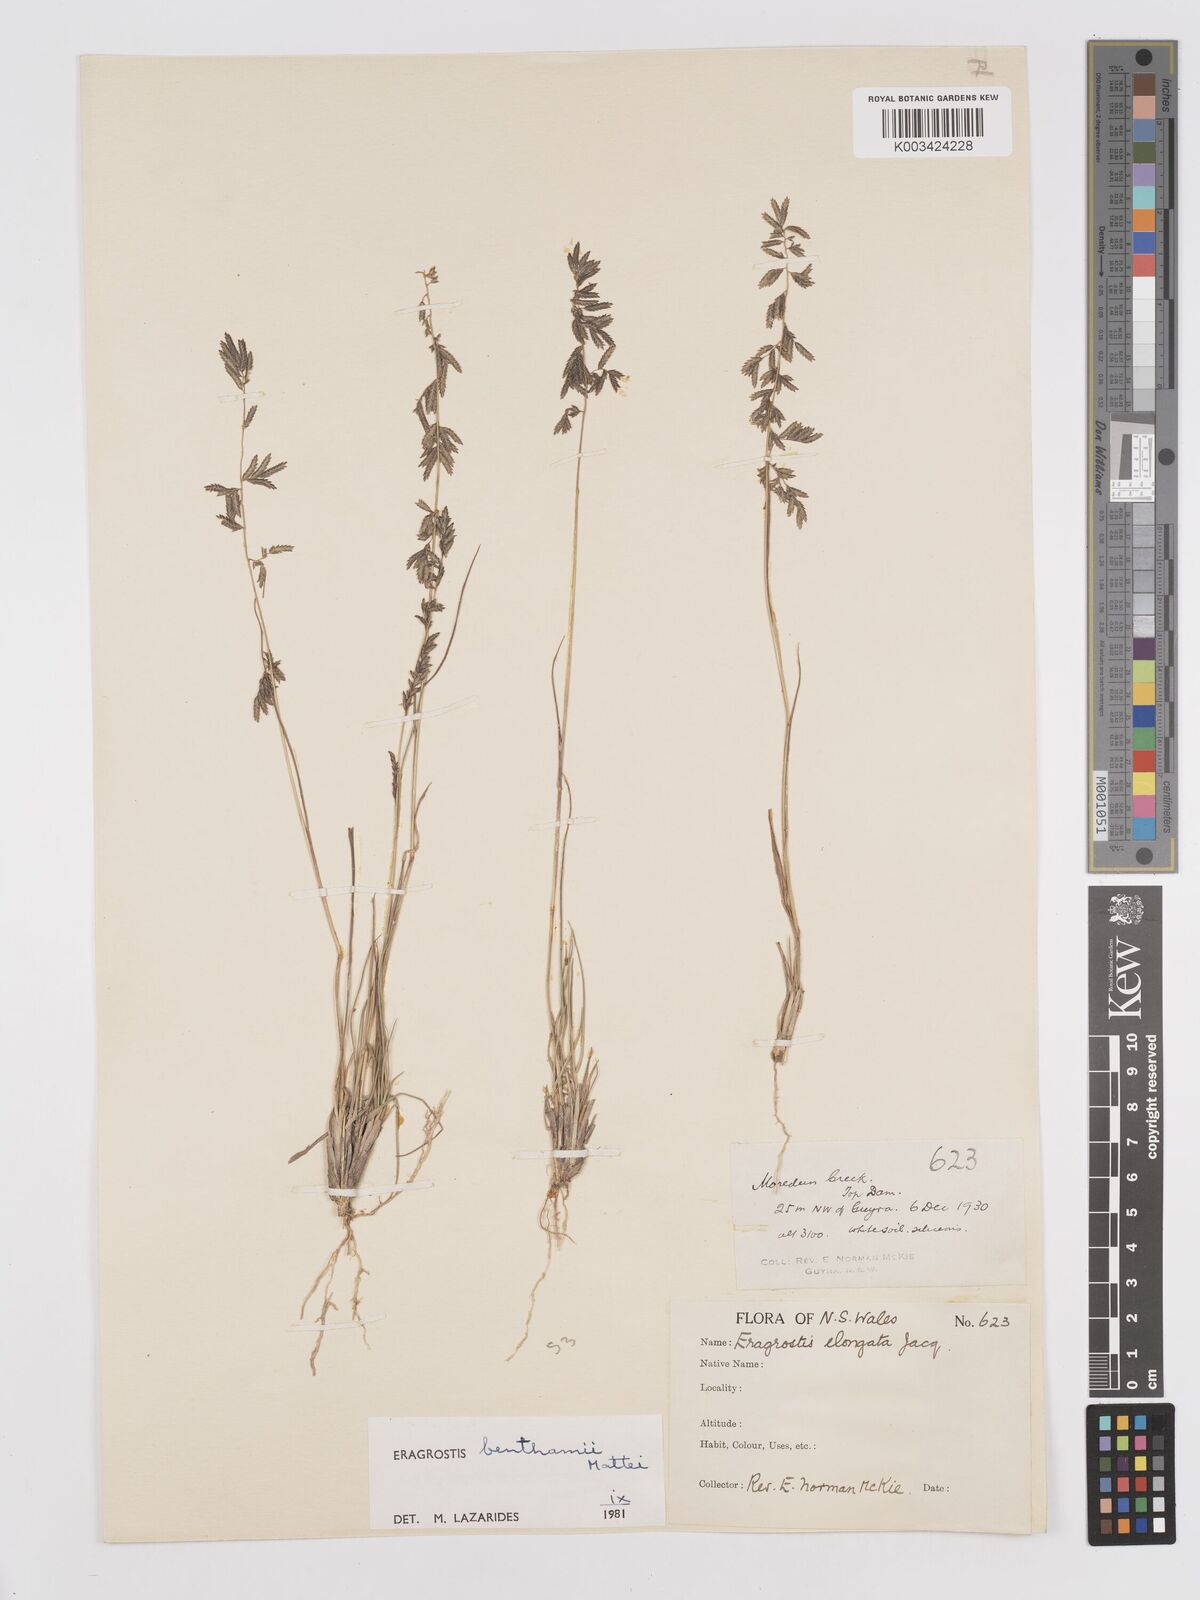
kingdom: Plantae
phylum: Tracheophyta
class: Liliopsida
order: Poales
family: Poaceae
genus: Eragrostis
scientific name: Eragrostis brownii
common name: Lovegrass
